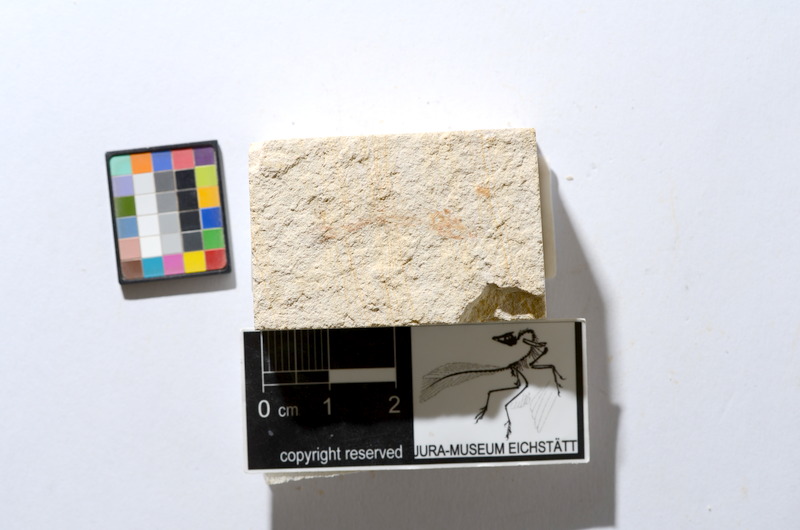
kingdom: Animalia
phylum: Chordata
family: Ascalaboidae
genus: Tharsis
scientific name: Tharsis dubius
